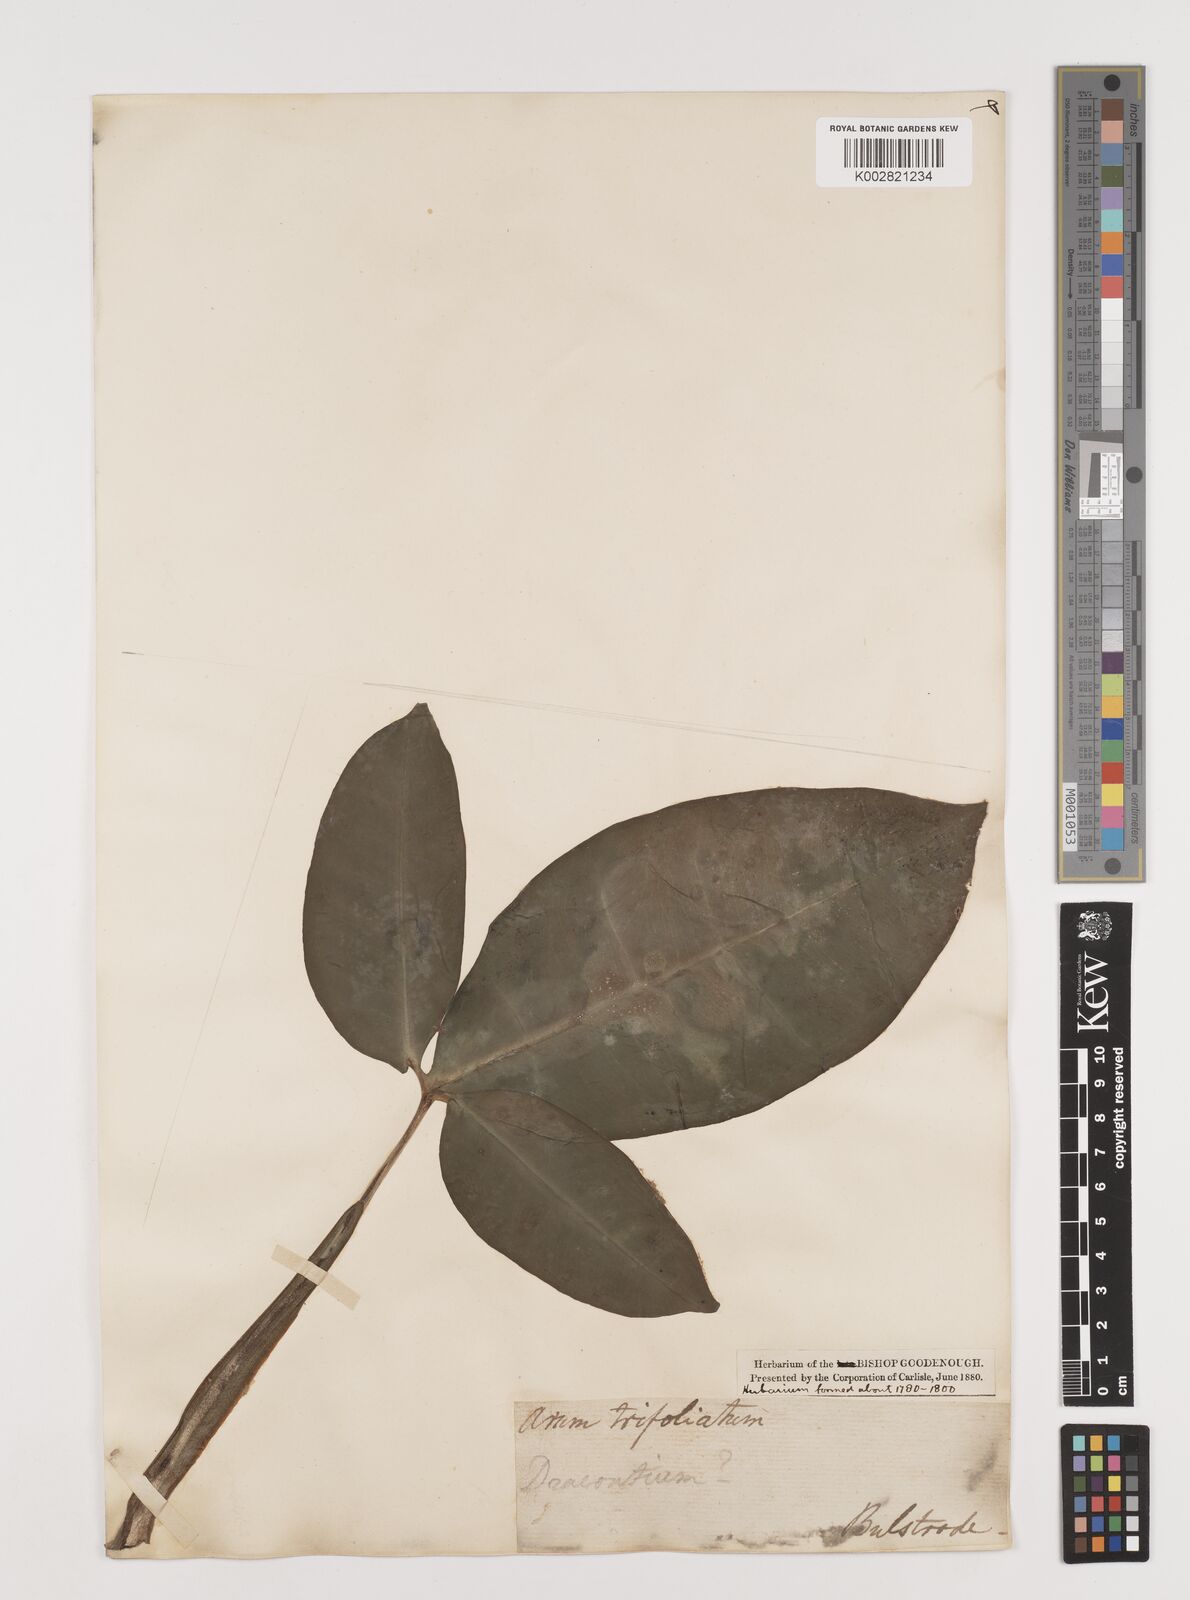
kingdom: Plantae
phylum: Tracheophyta
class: Liliopsida
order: Alismatales
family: Araceae
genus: Syngonium
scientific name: Syngonium auritum
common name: Five-fingers
